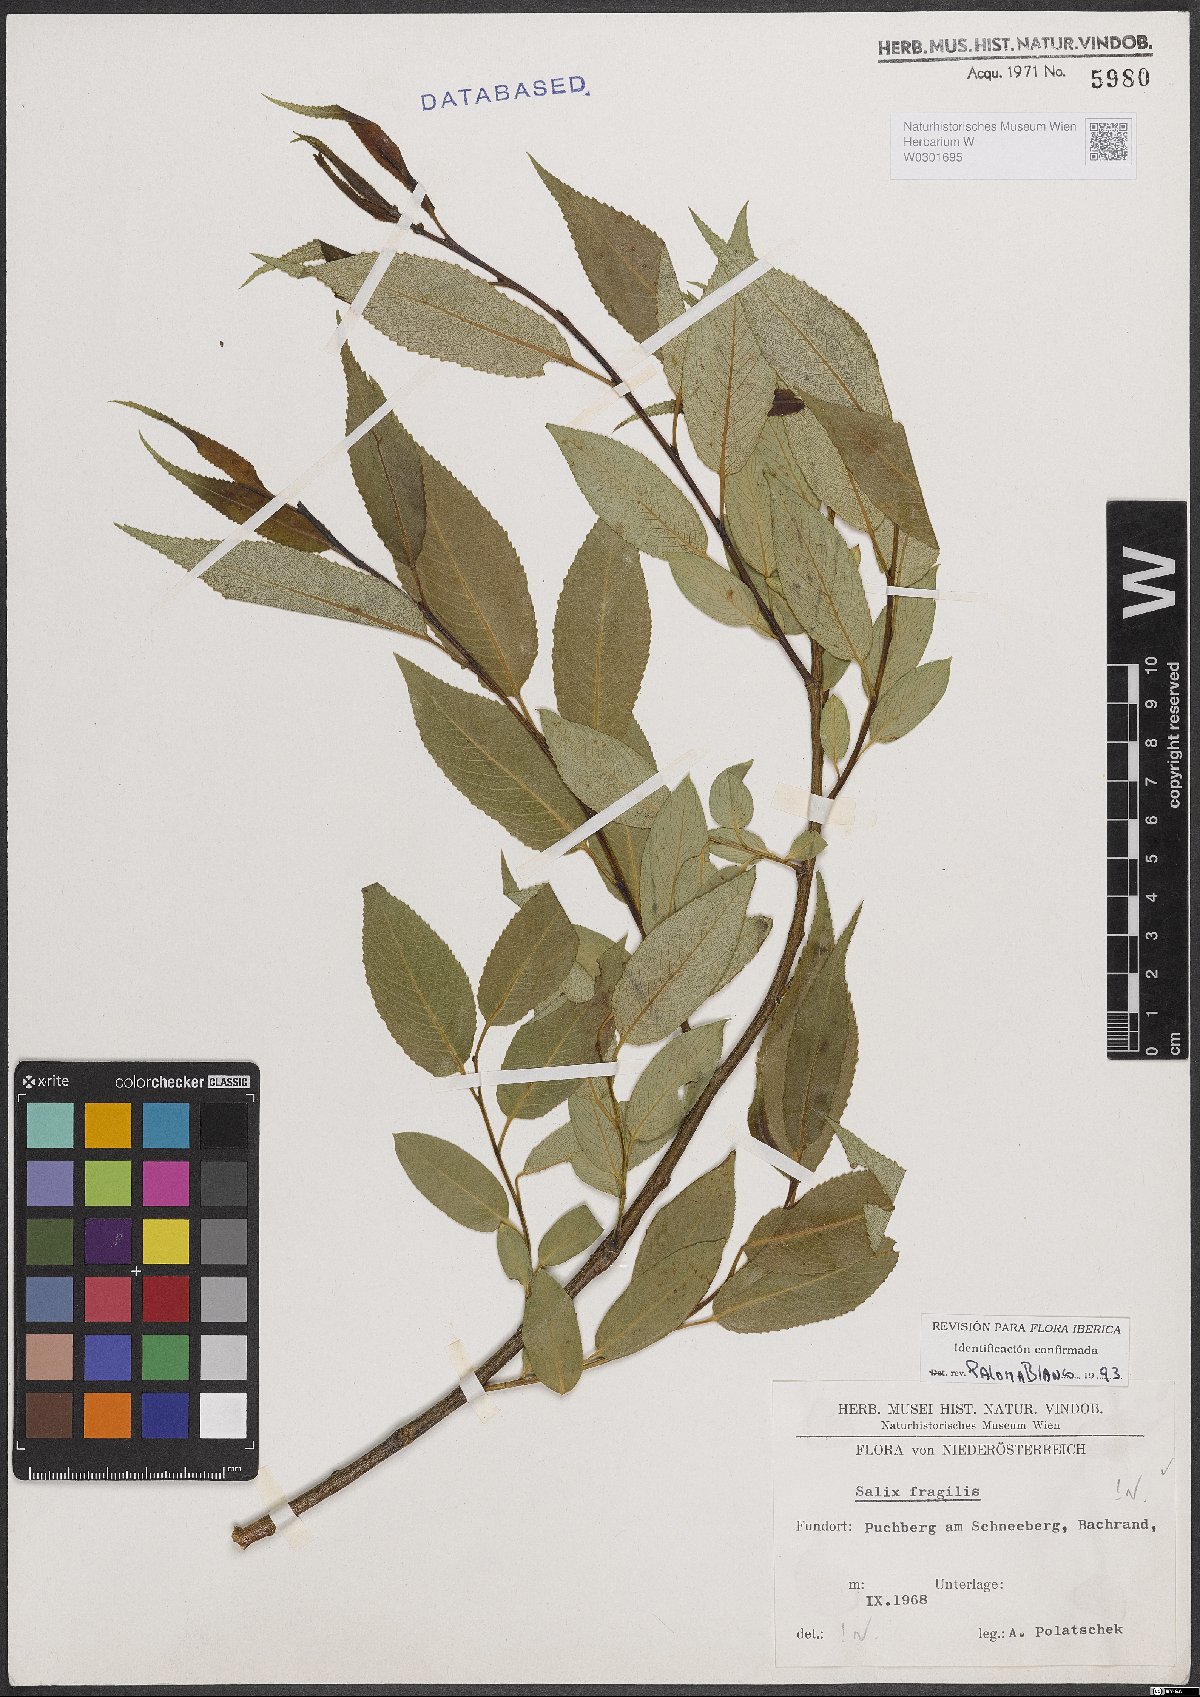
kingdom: Plantae
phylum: Tracheophyta
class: Magnoliopsida
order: Malpighiales
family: Salicaceae
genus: Salix
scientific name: Salix fragilis
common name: Crack willow
